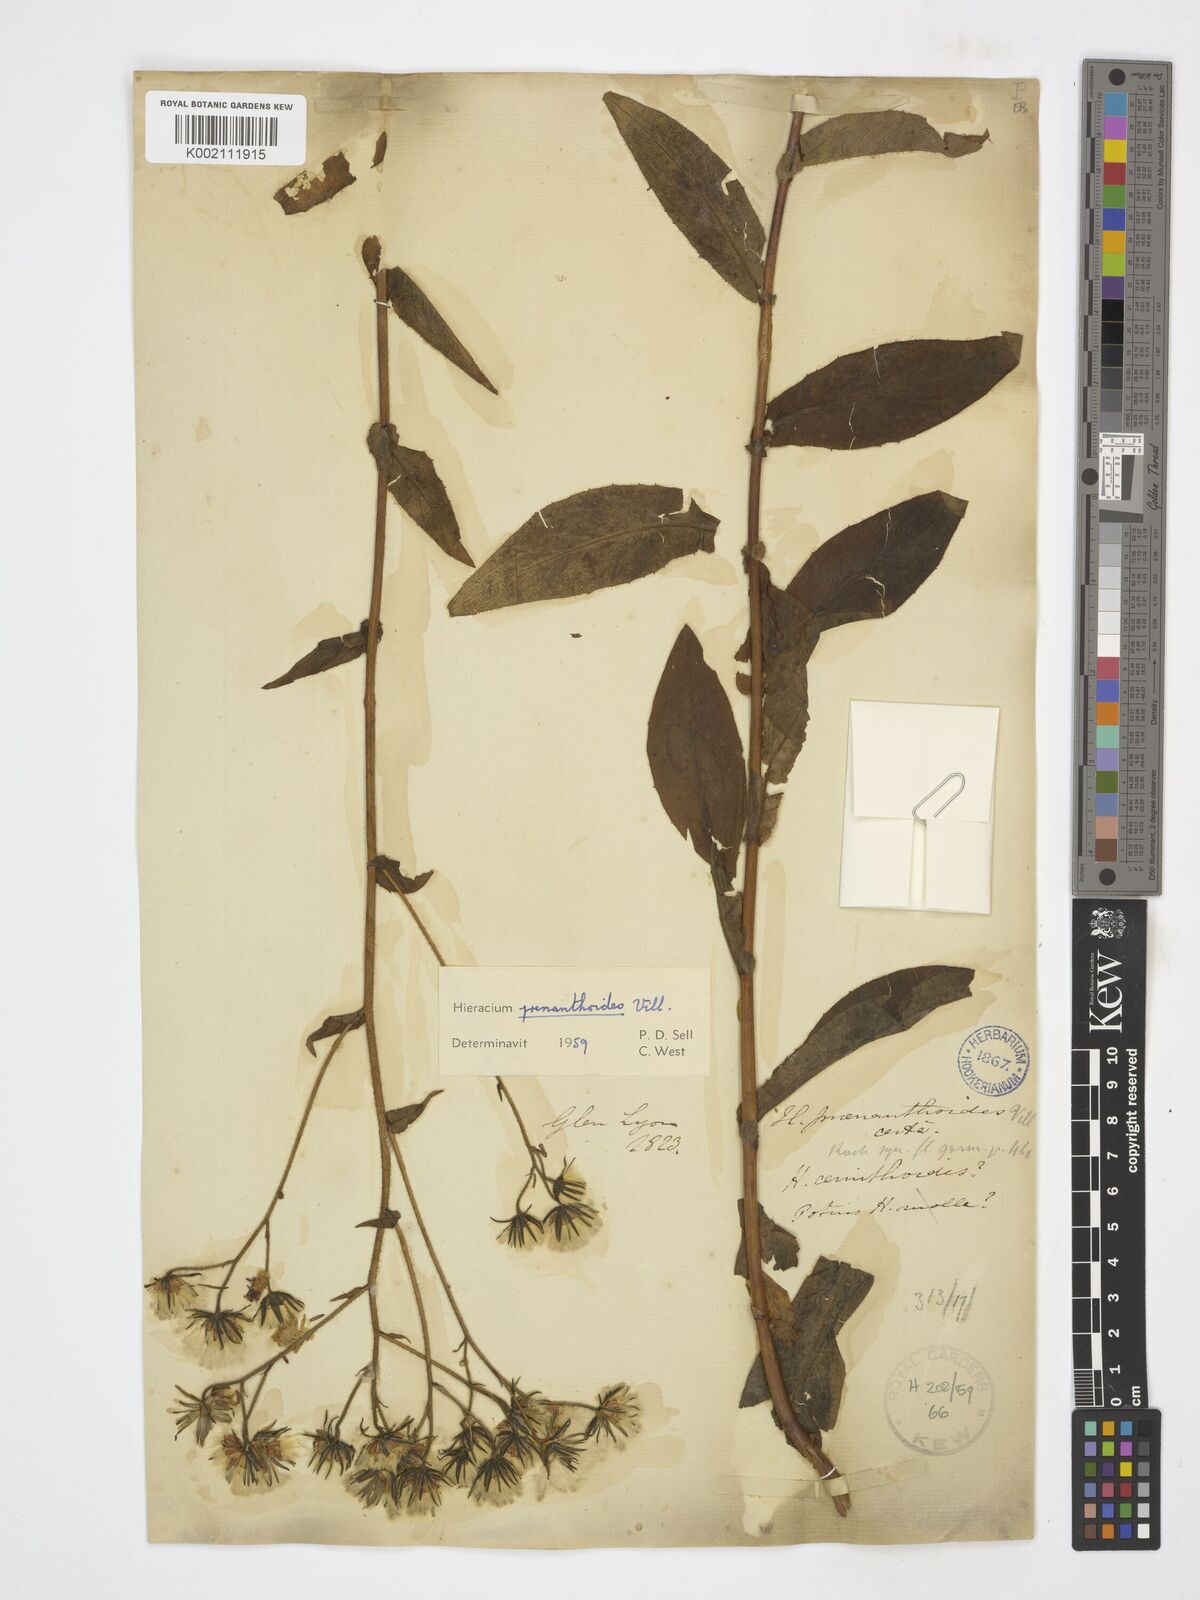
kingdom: Plantae
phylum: Tracheophyta
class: Magnoliopsida
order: Asterales
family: Asteraceae
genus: Hieracium
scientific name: Hieracium
